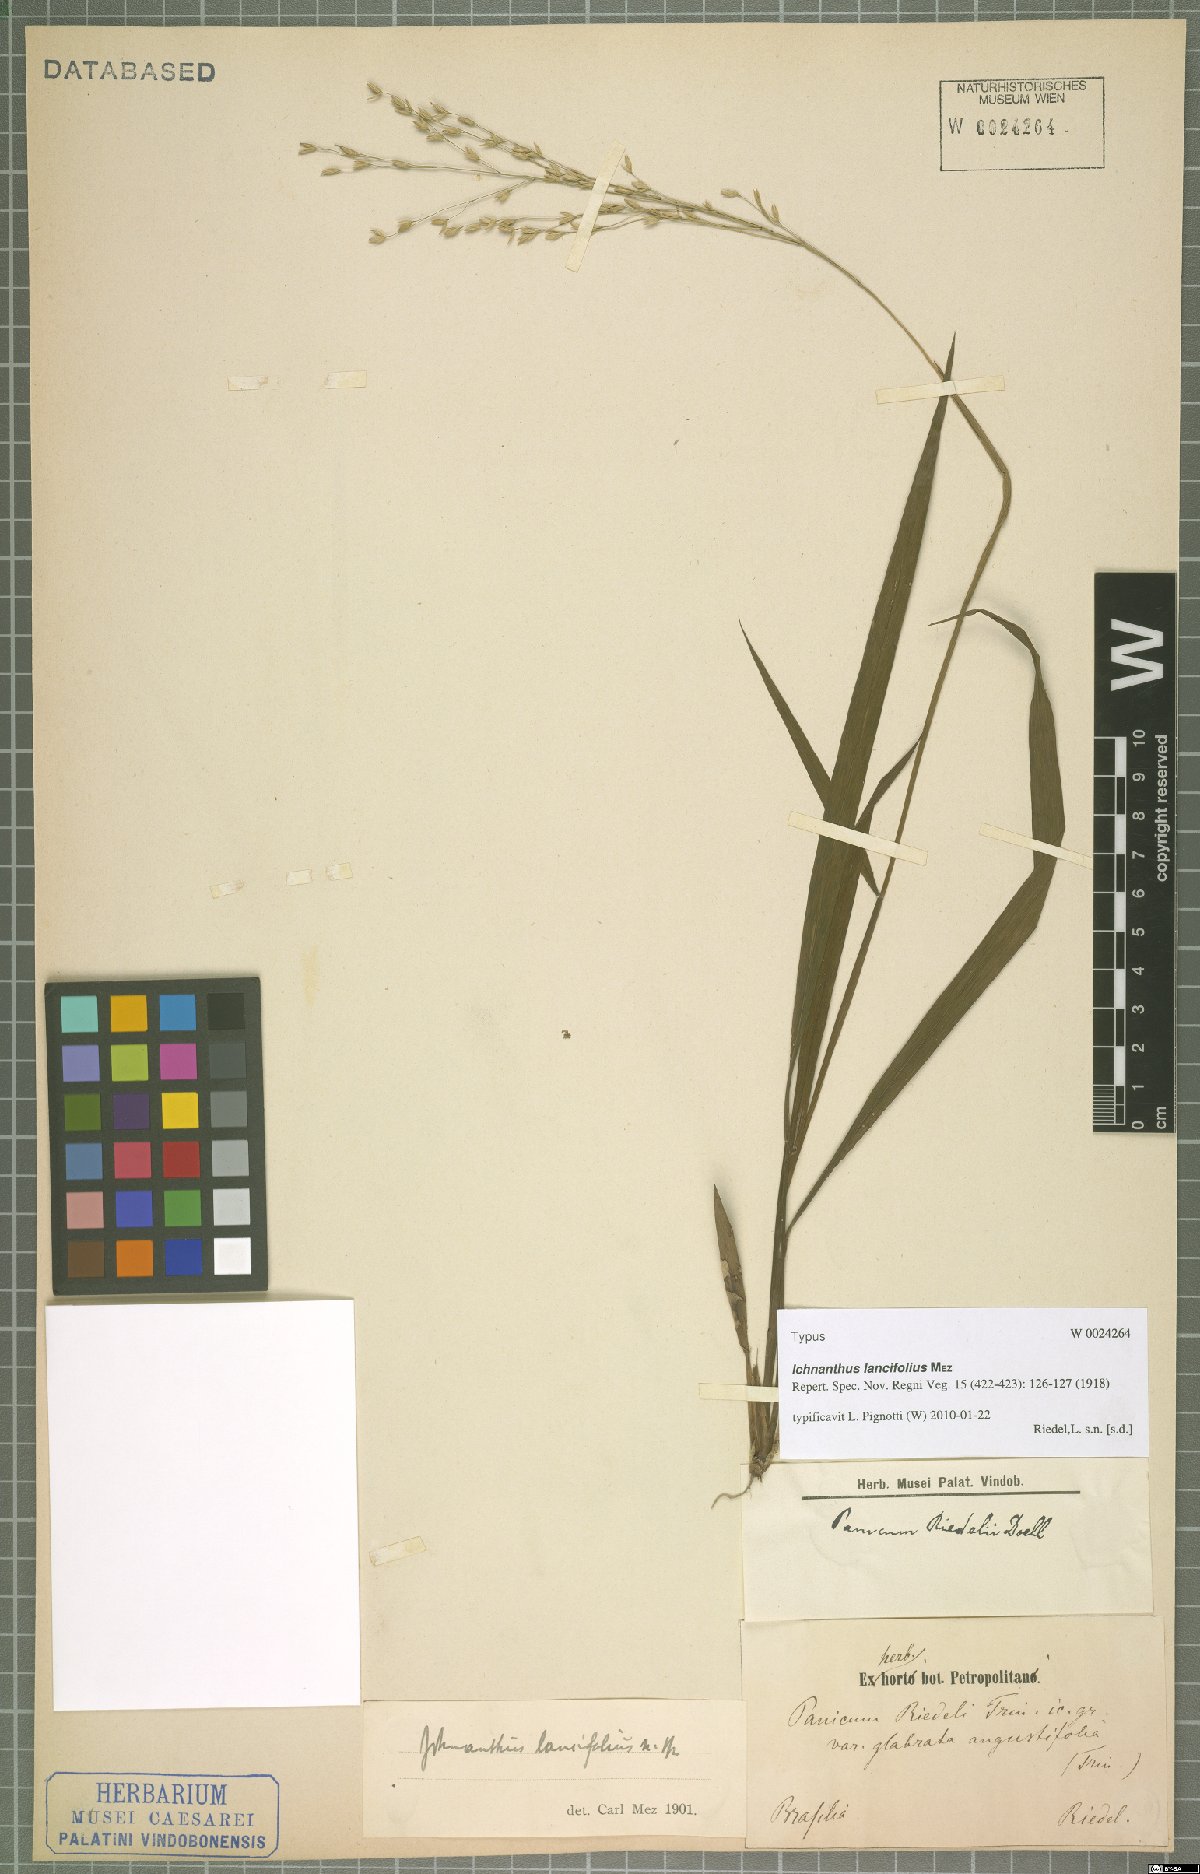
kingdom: Plantae
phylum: Tracheophyta
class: Liliopsida
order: Poales
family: Poaceae
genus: Ichnanthus
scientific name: Ichnanthus lancifolius
